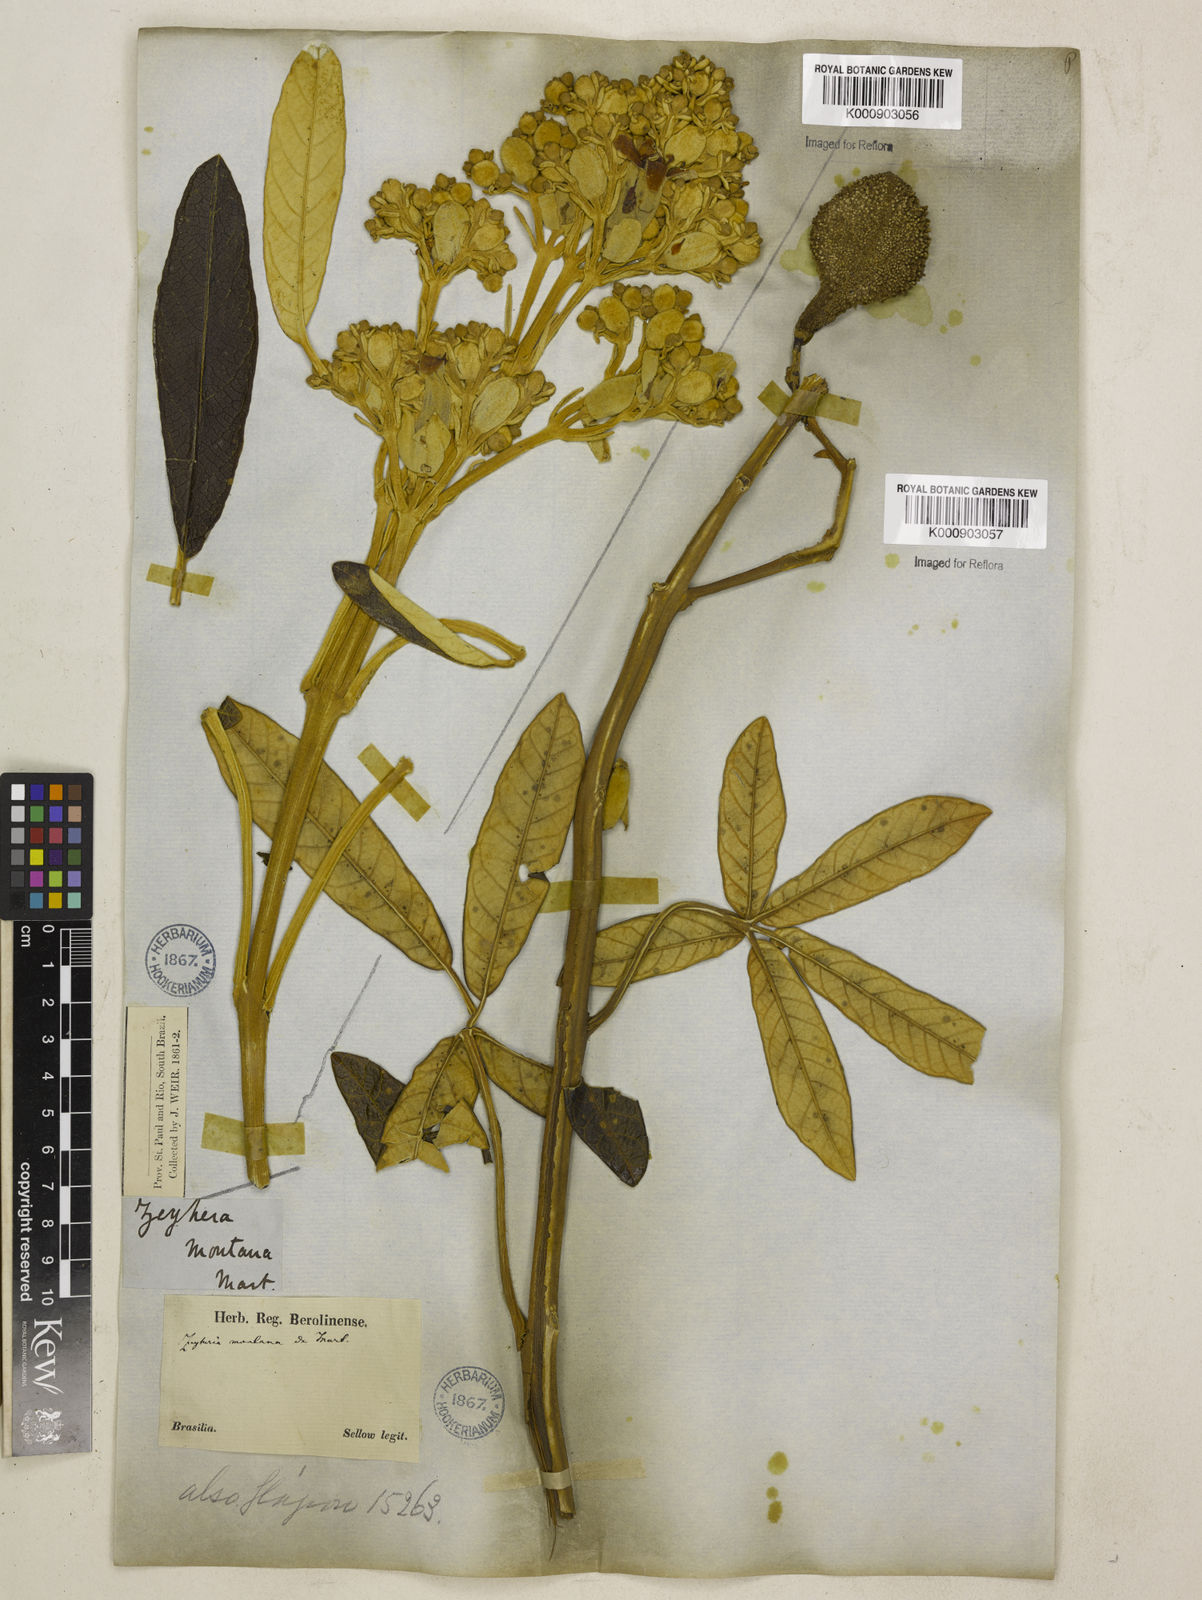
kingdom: Plantae
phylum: Tracheophyta
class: Magnoliopsida
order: Lamiales
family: Bignoniaceae
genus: Zeyheria
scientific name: Zeyheria
